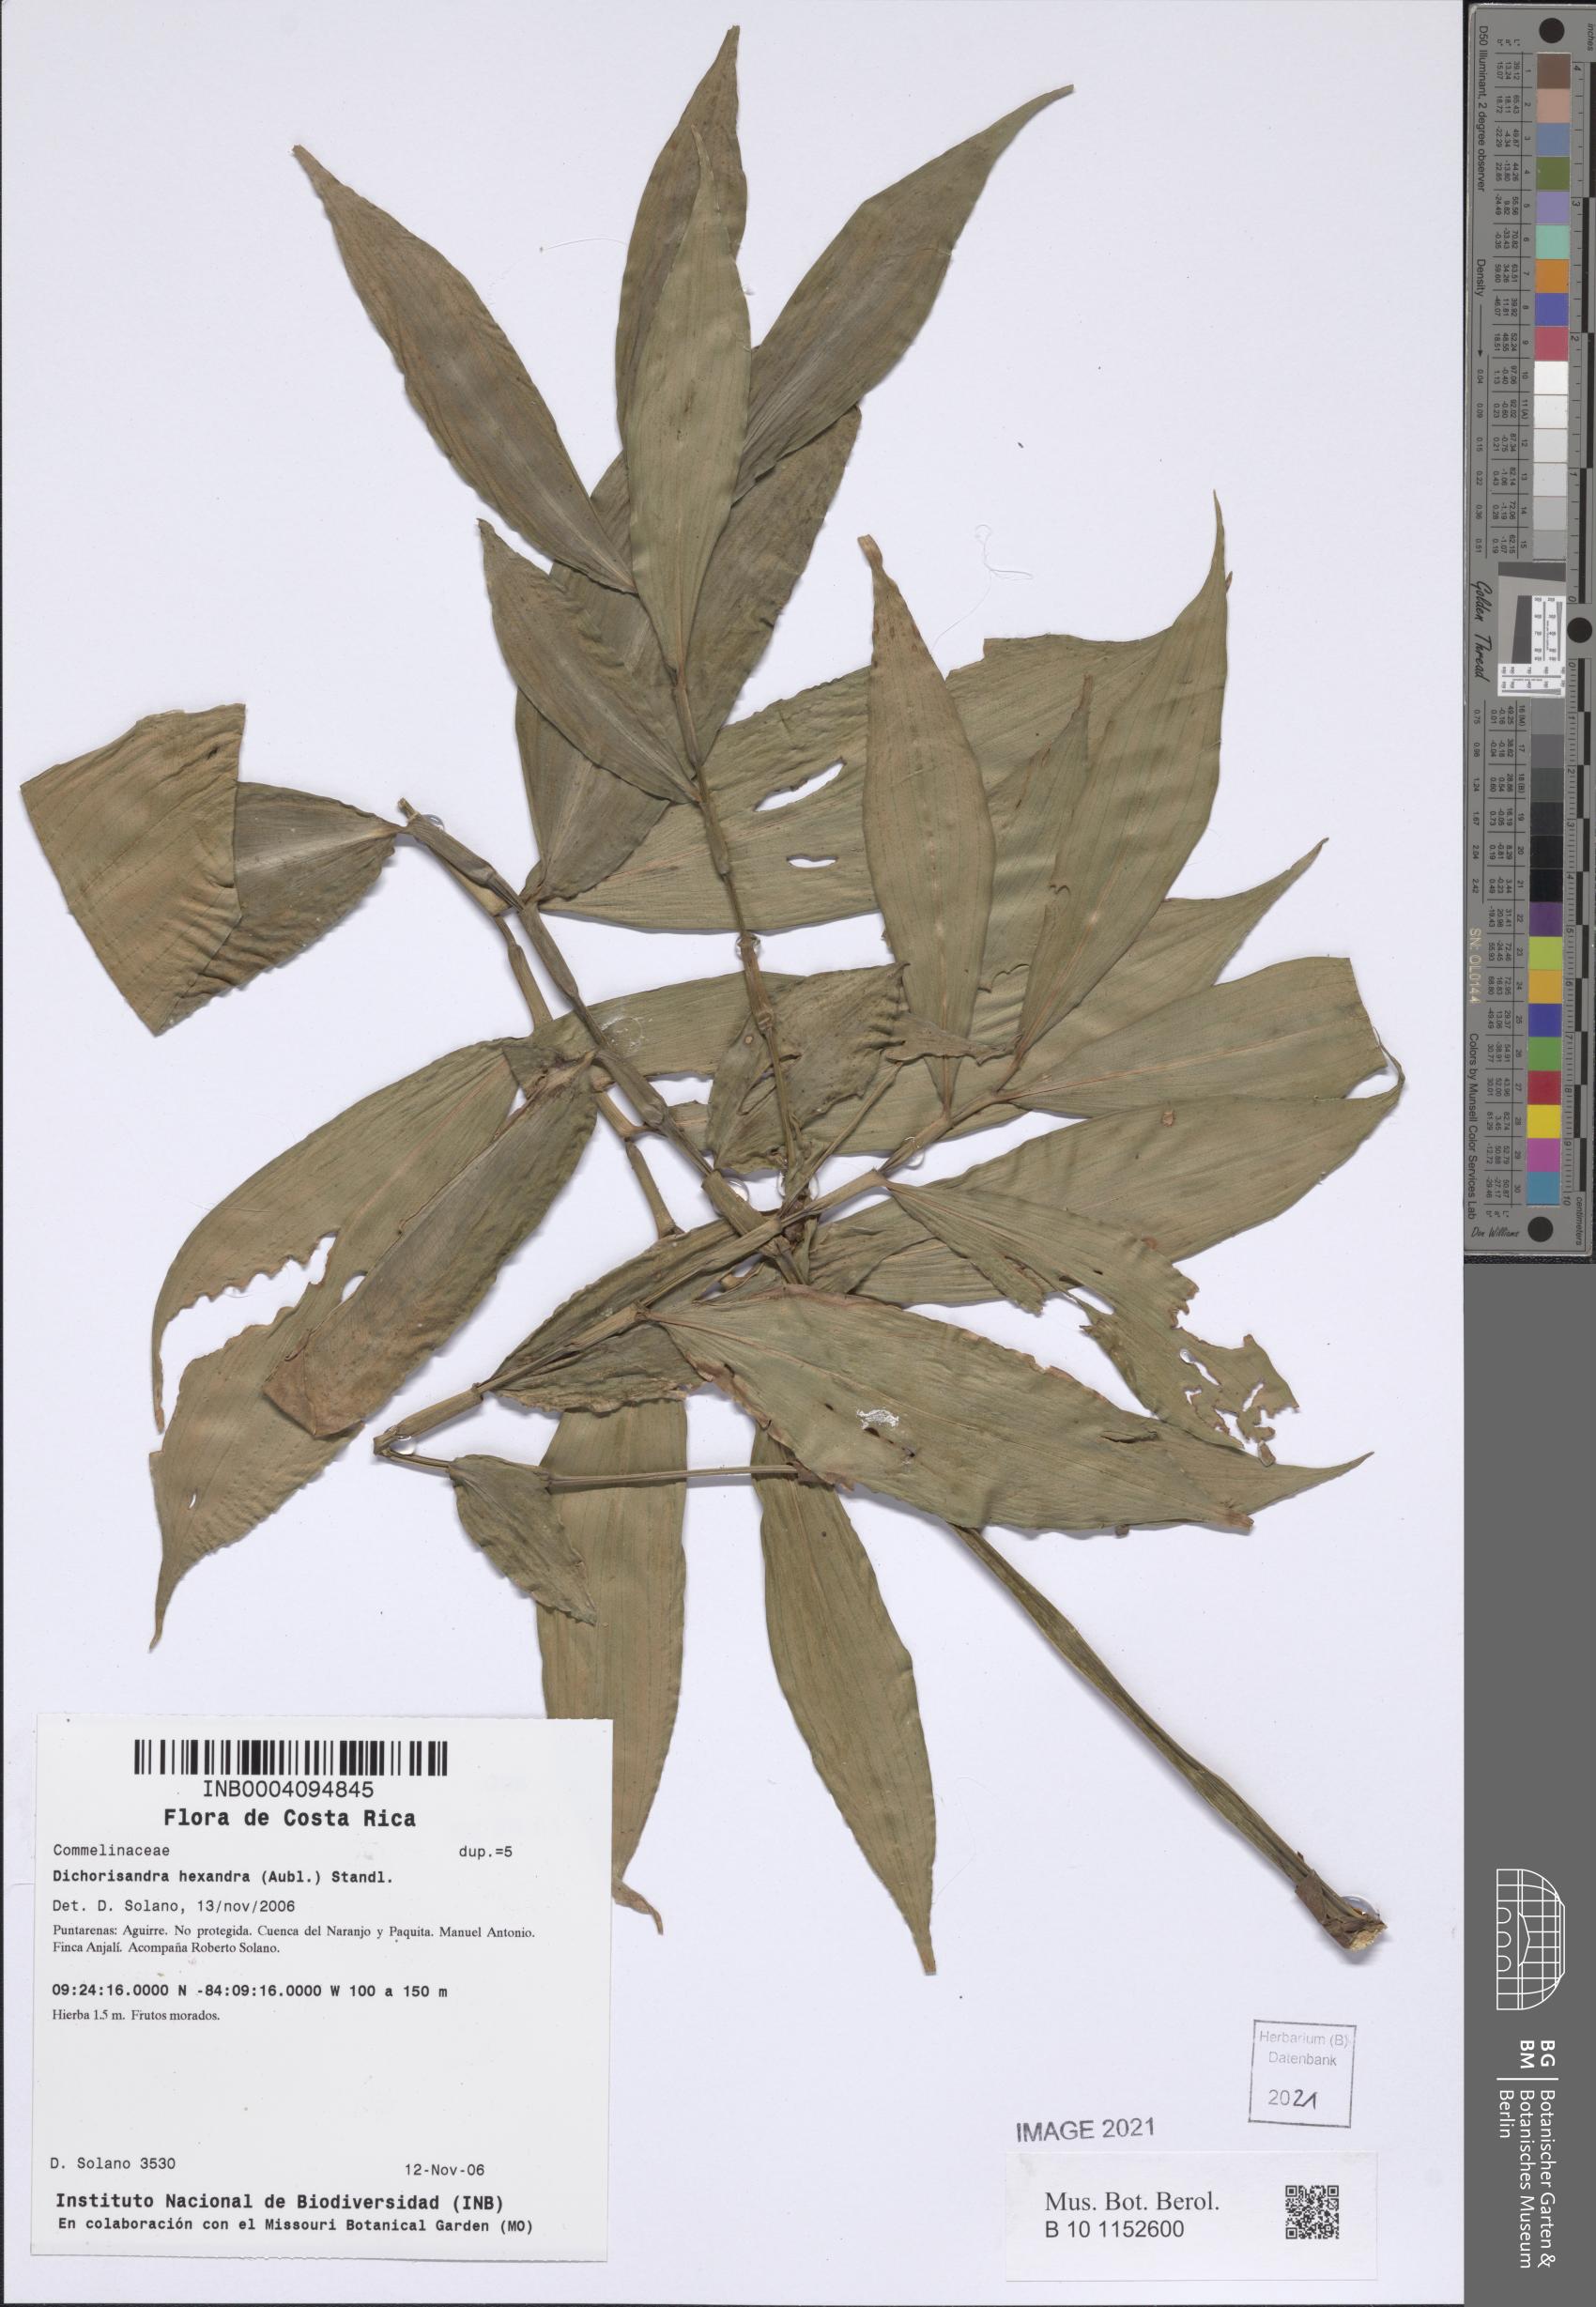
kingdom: Plantae
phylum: Tracheophyta
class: Liliopsida
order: Commelinales
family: Commelinaceae
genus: Dichorisandra
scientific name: Dichorisandra hexandra
